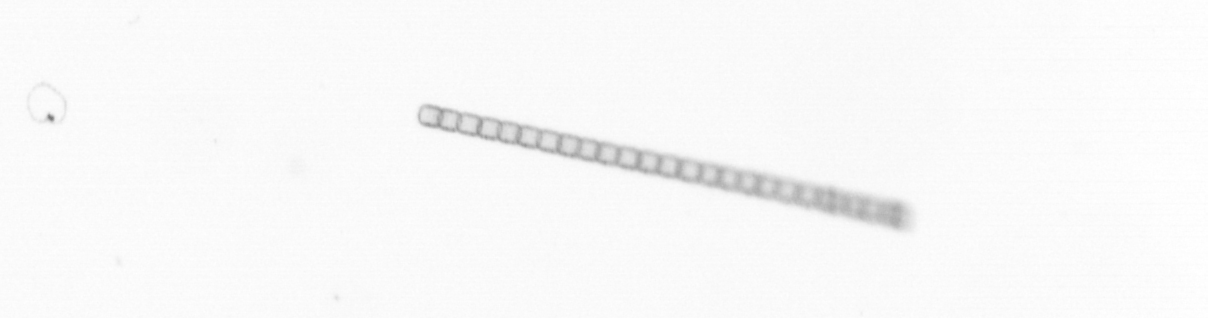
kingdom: Chromista
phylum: Ochrophyta
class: Bacillariophyceae
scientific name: Bacillariophyceae
